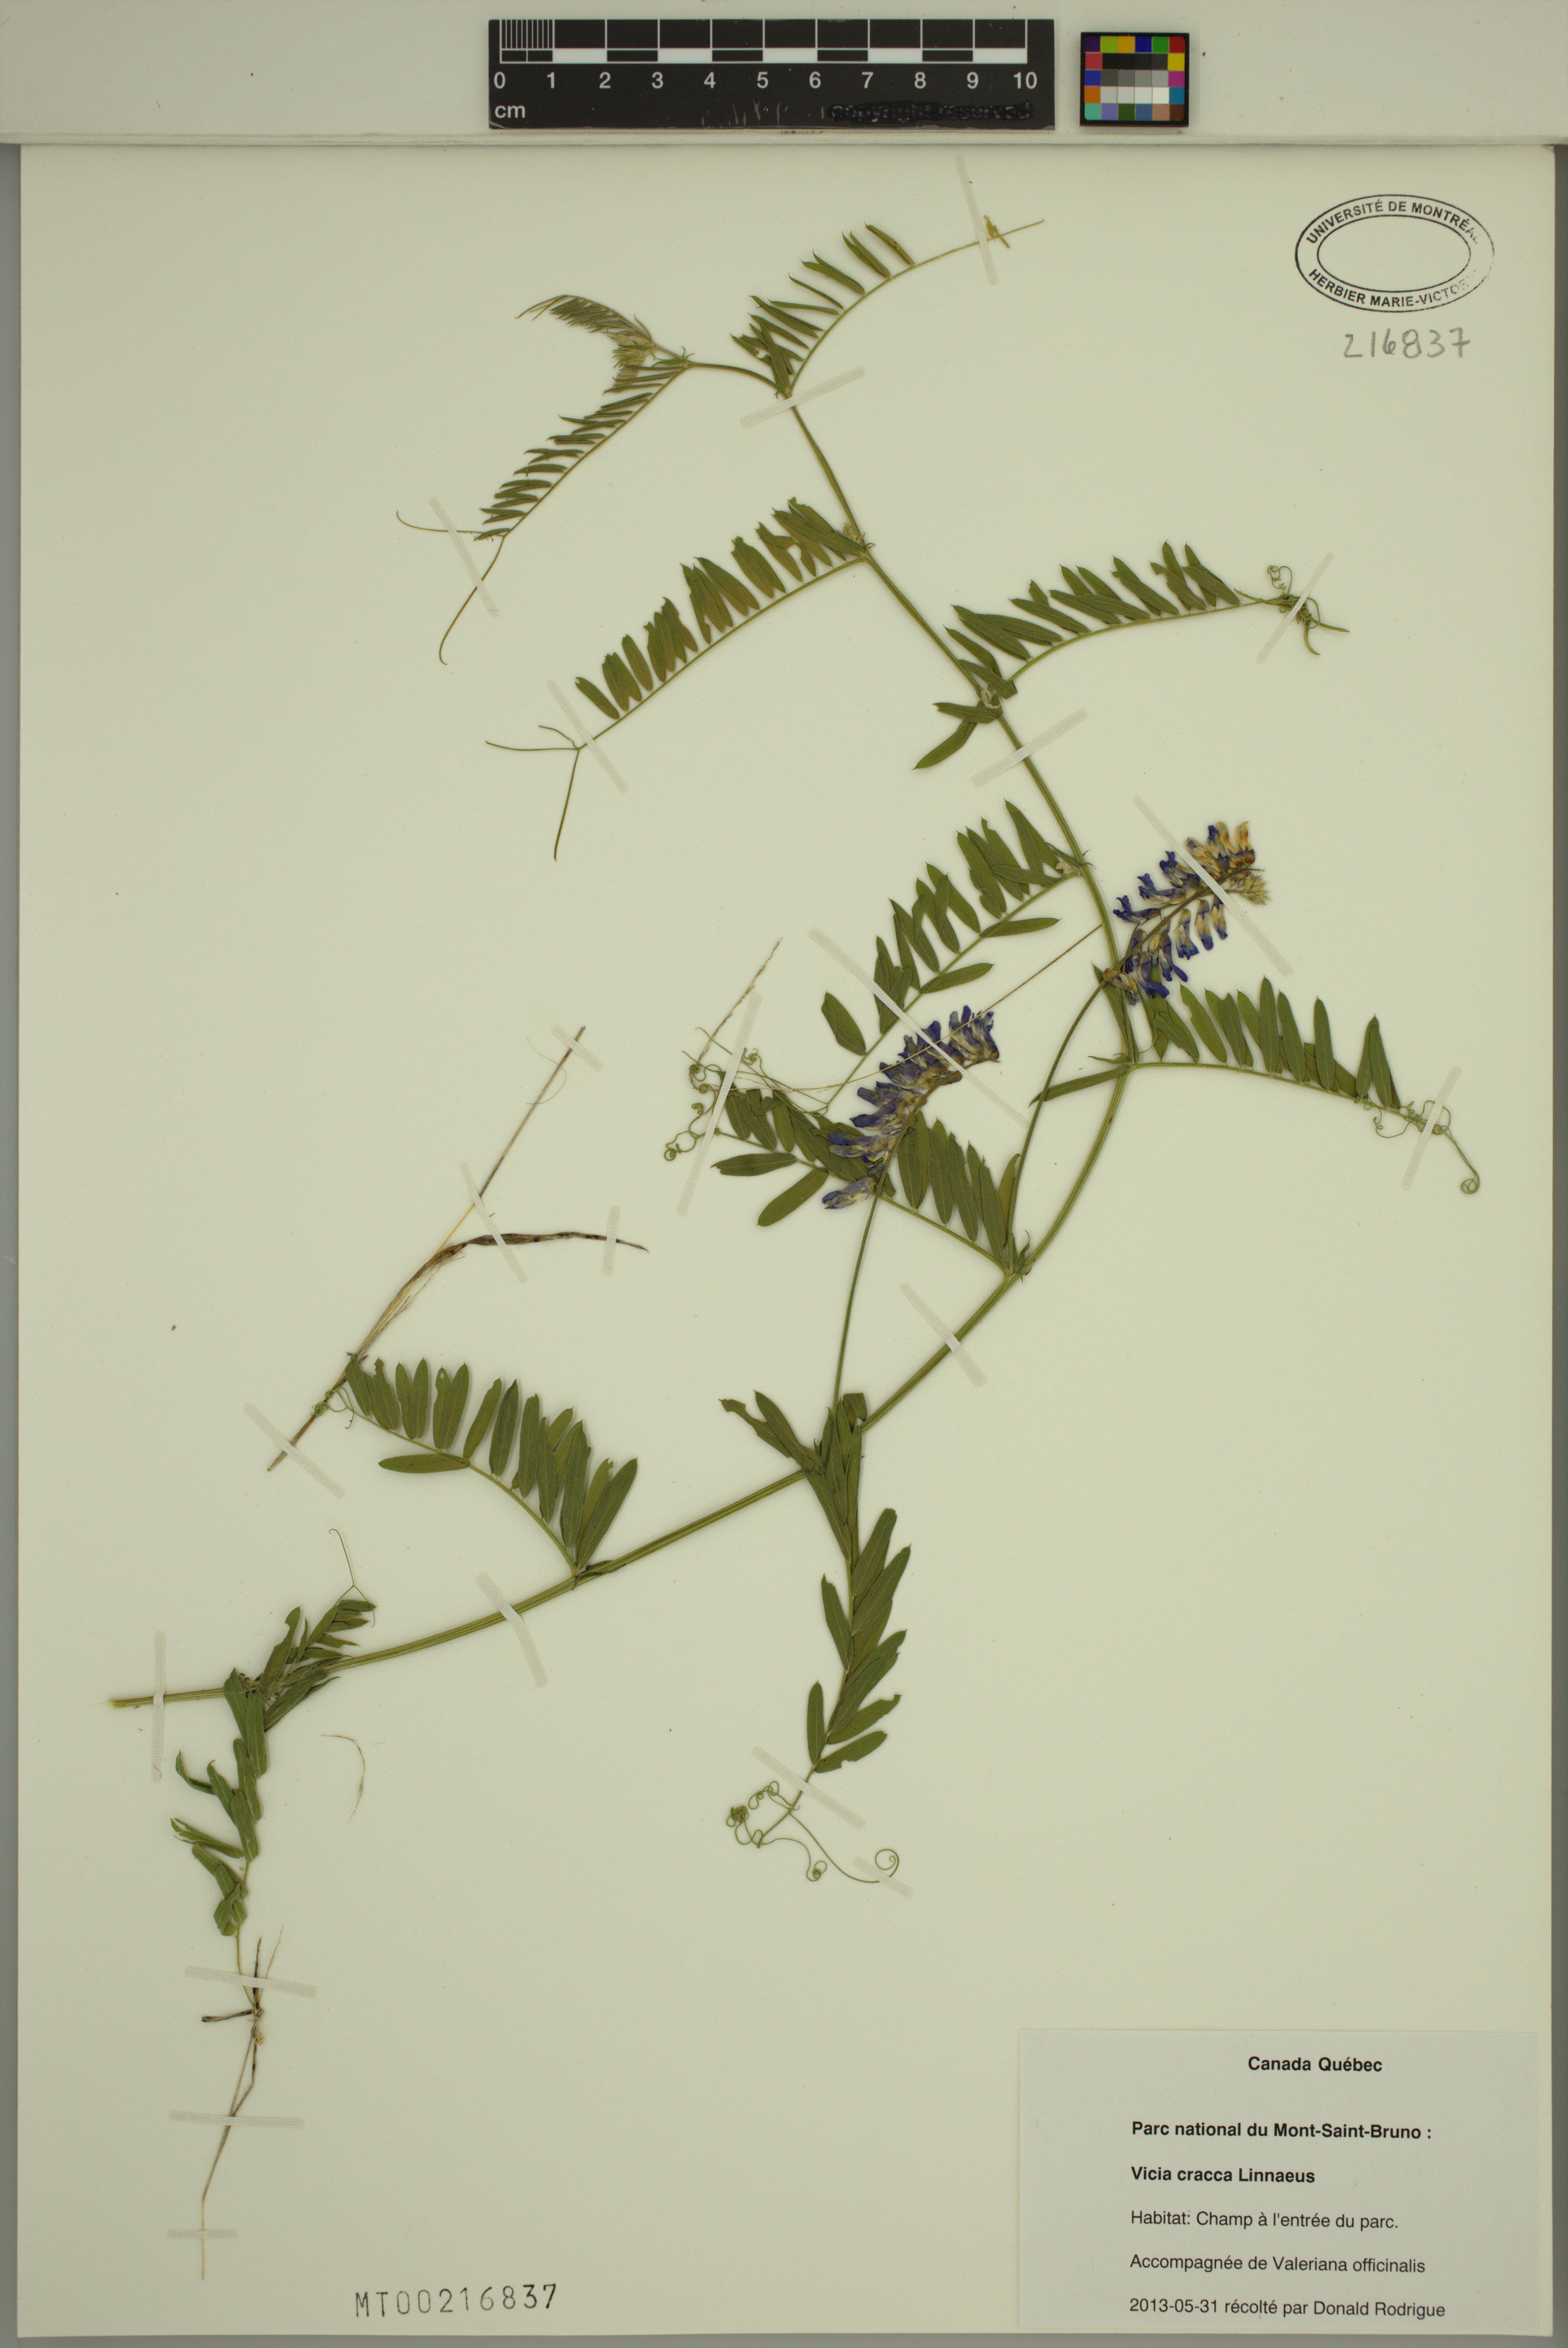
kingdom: Plantae
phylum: Tracheophyta
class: Magnoliopsida
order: Fabales
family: Fabaceae
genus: Vicia
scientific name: Vicia cracca
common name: Bird vetch
